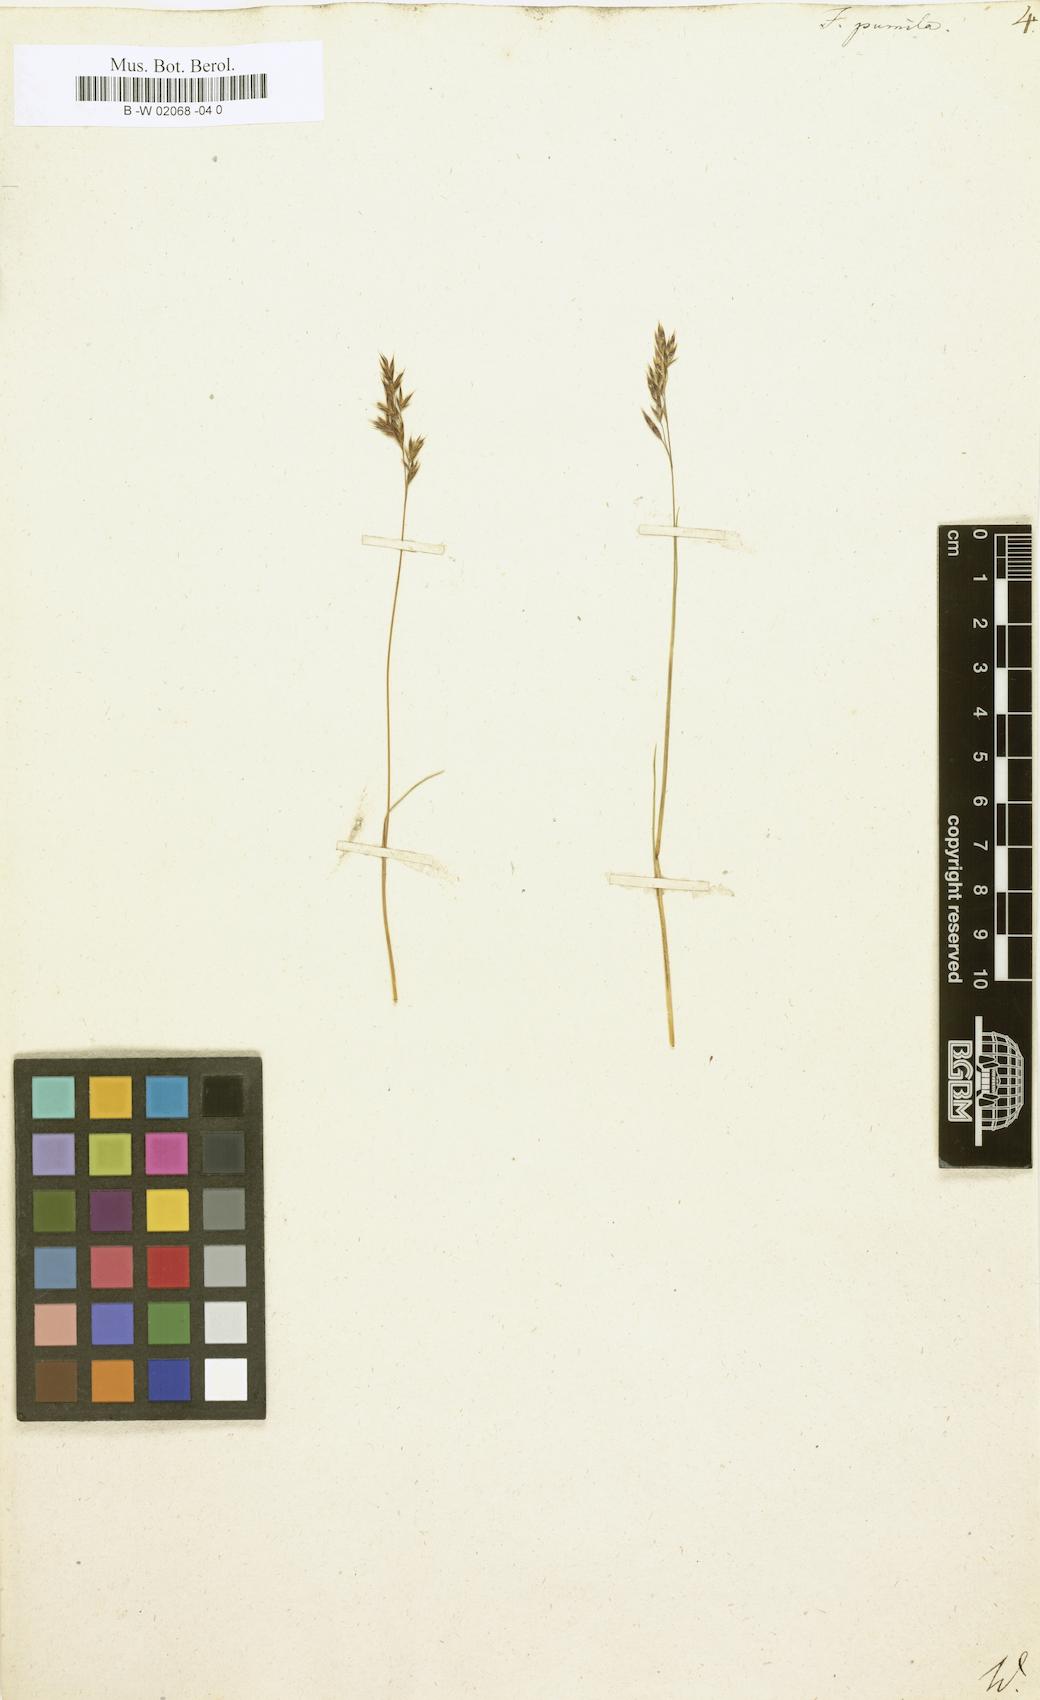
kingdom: Plantae
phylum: Tracheophyta
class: Liliopsida
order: Poales
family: Poaceae
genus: Festuca
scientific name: Festuca
